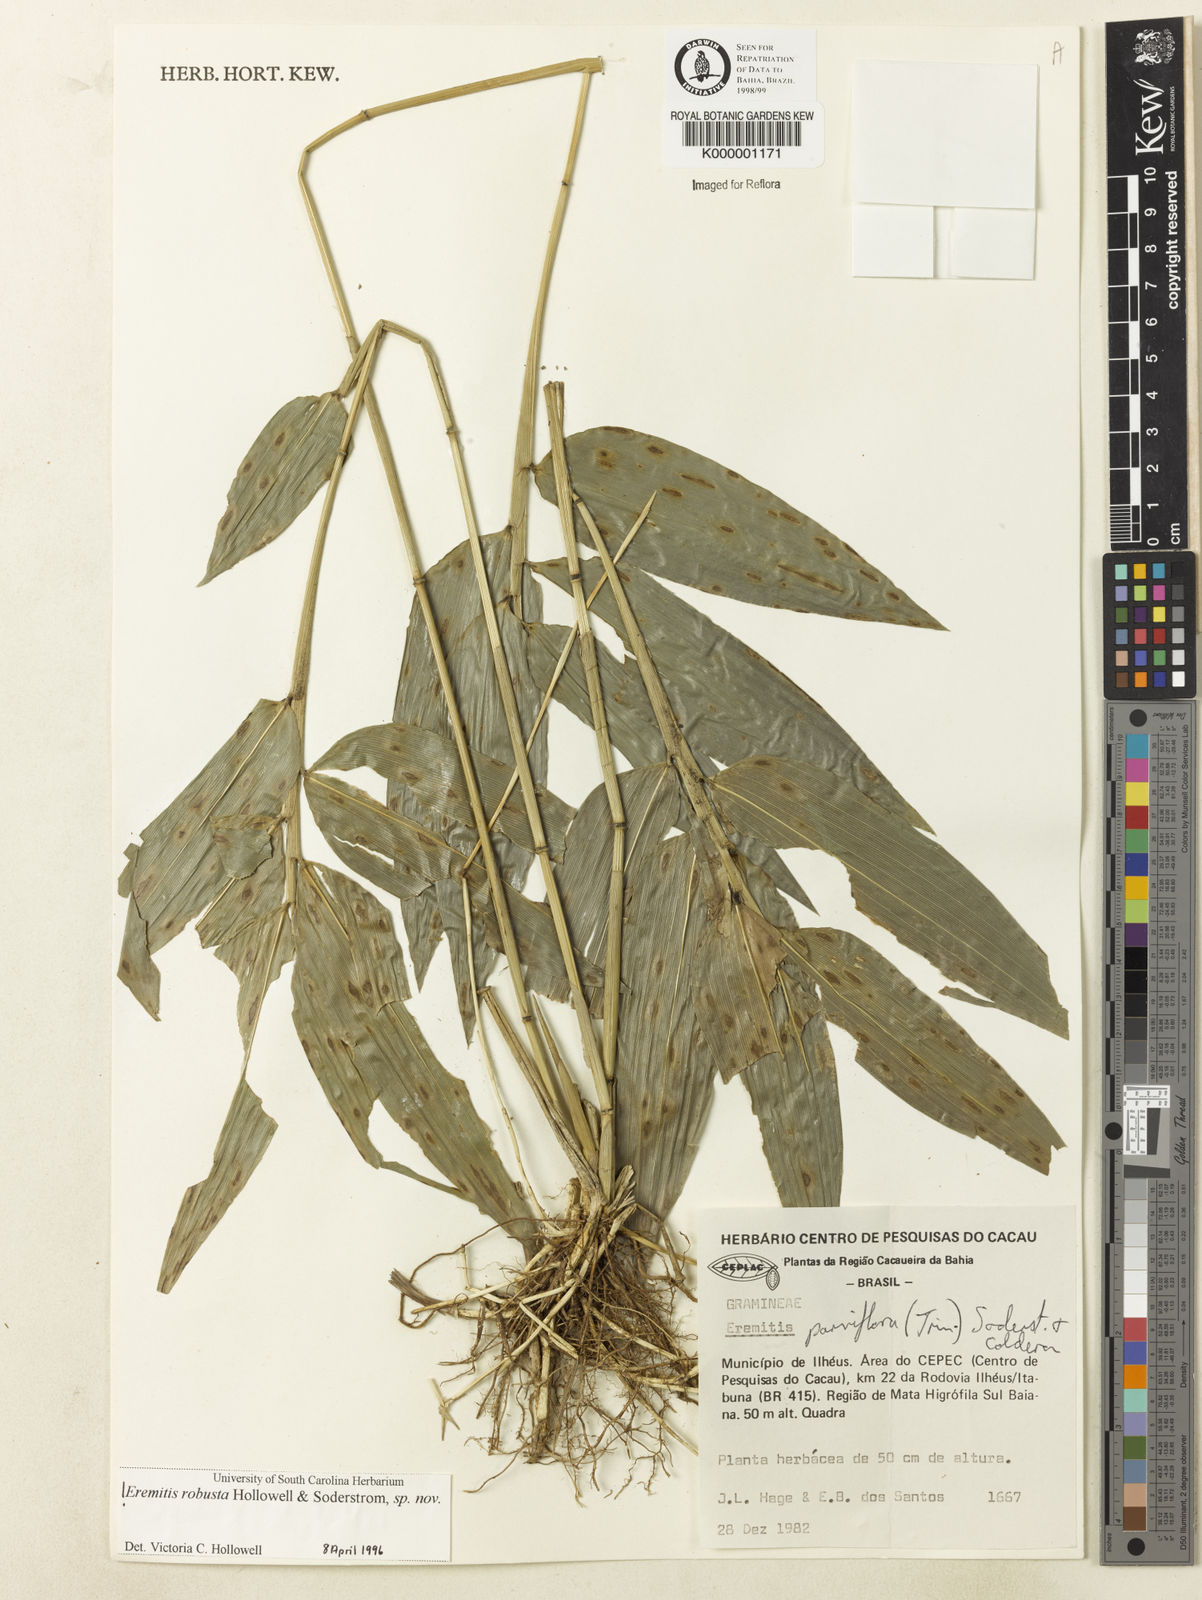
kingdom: Plantae
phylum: Tracheophyta
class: Liliopsida
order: Poales
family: Poaceae
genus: Eremitis
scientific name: Eremitis
